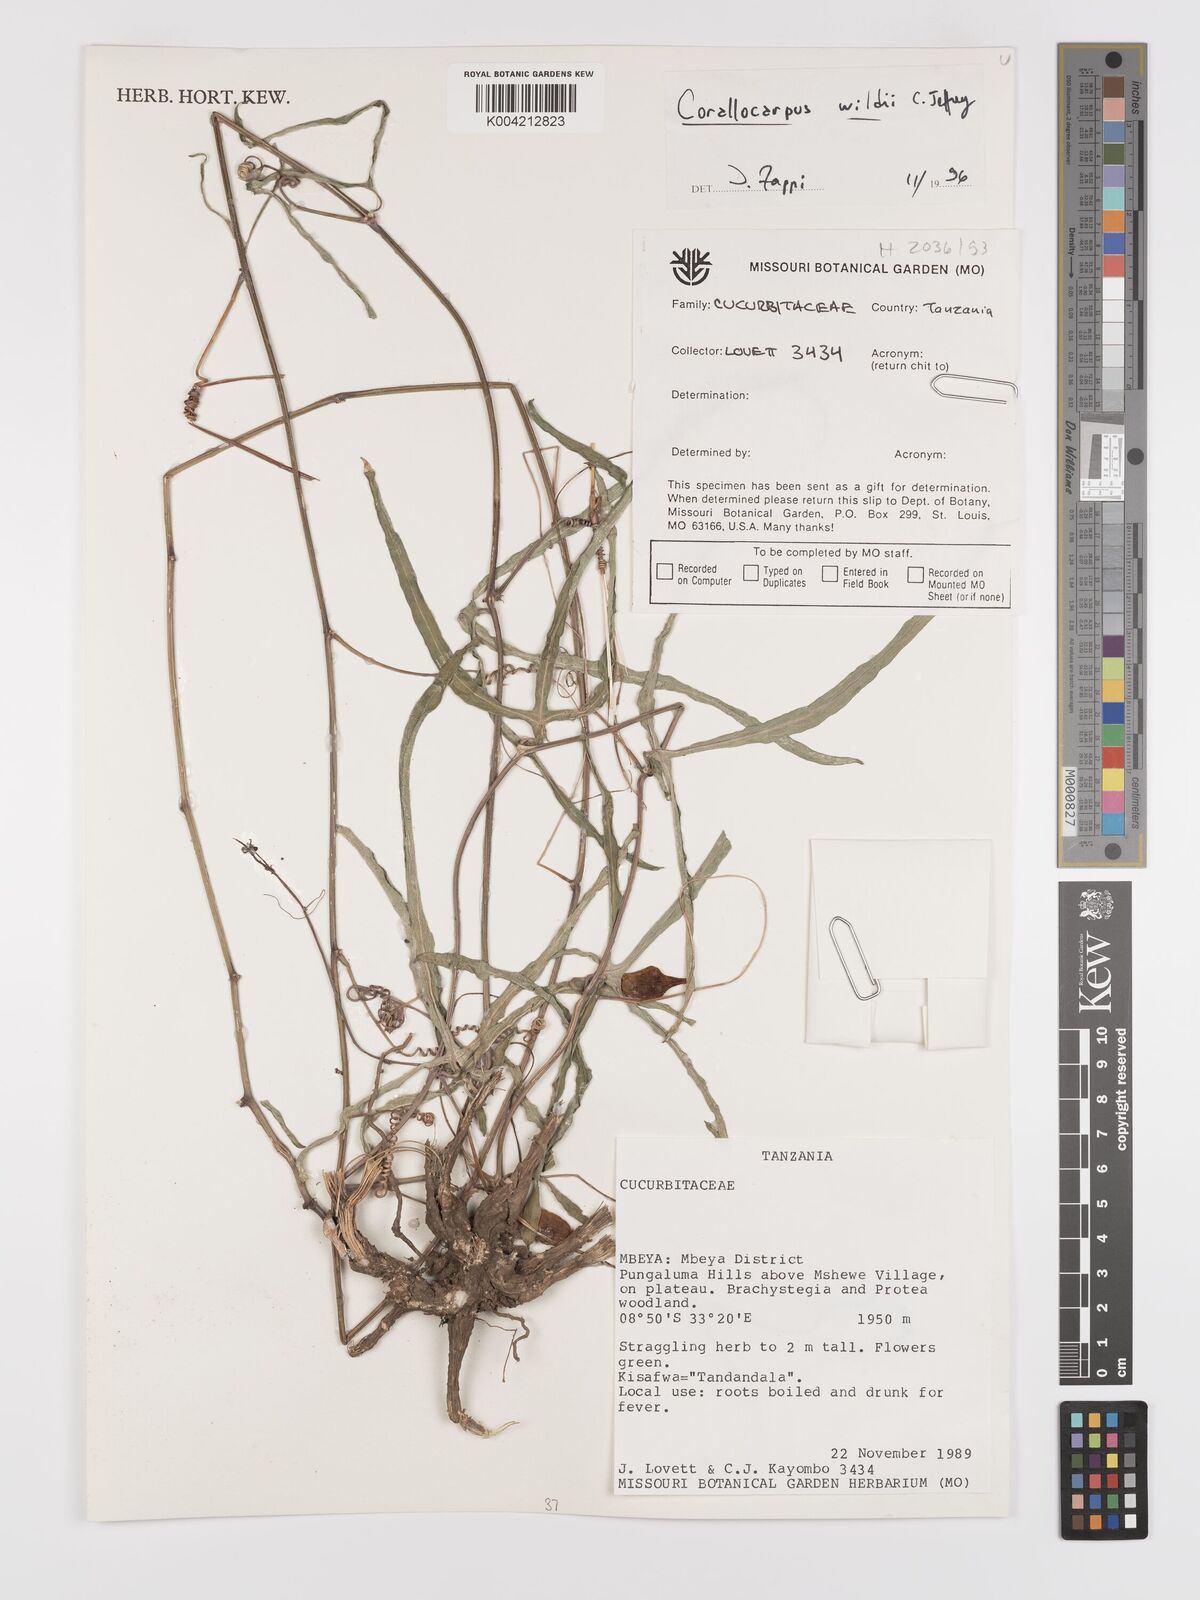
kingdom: Plantae
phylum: Tracheophyta
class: Magnoliopsida
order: Cucurbitales
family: Cucurbitaceae
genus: Corallocarpus
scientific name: Corallocarpus tenuissimus
